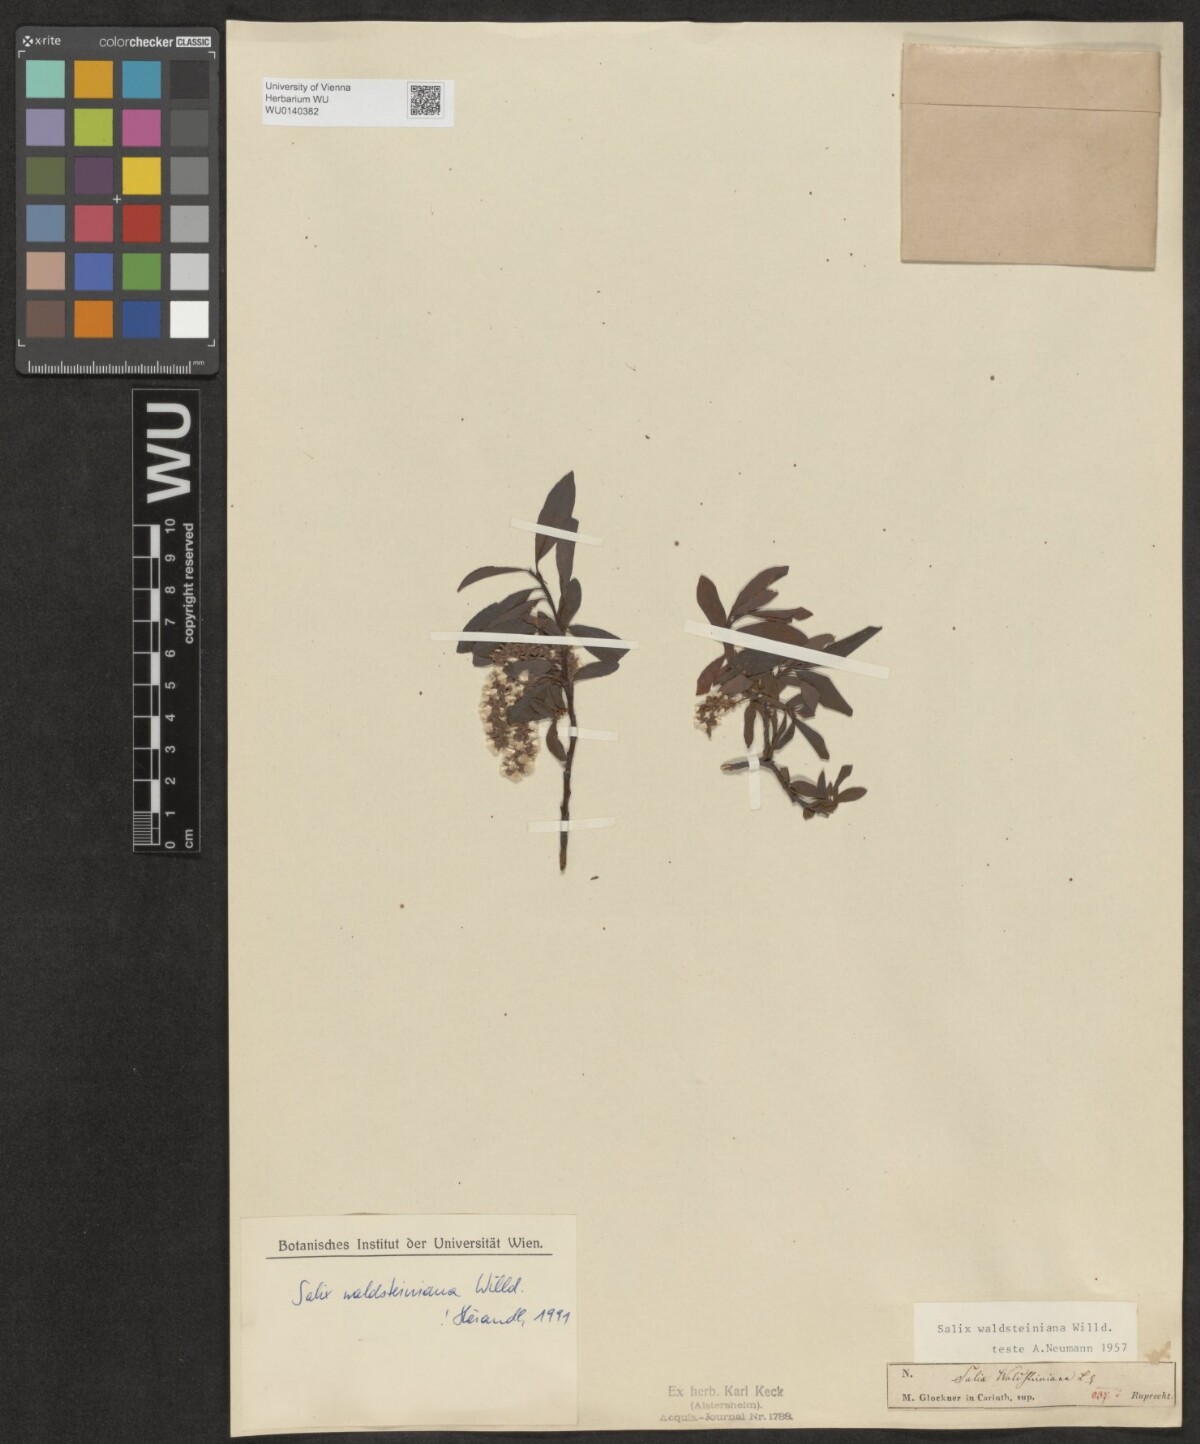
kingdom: Plantae
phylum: Tracheophyta
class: Magnoliopsida
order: Malpighiales
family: Salicaceae
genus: Salix
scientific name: Salix waldsteiniana
